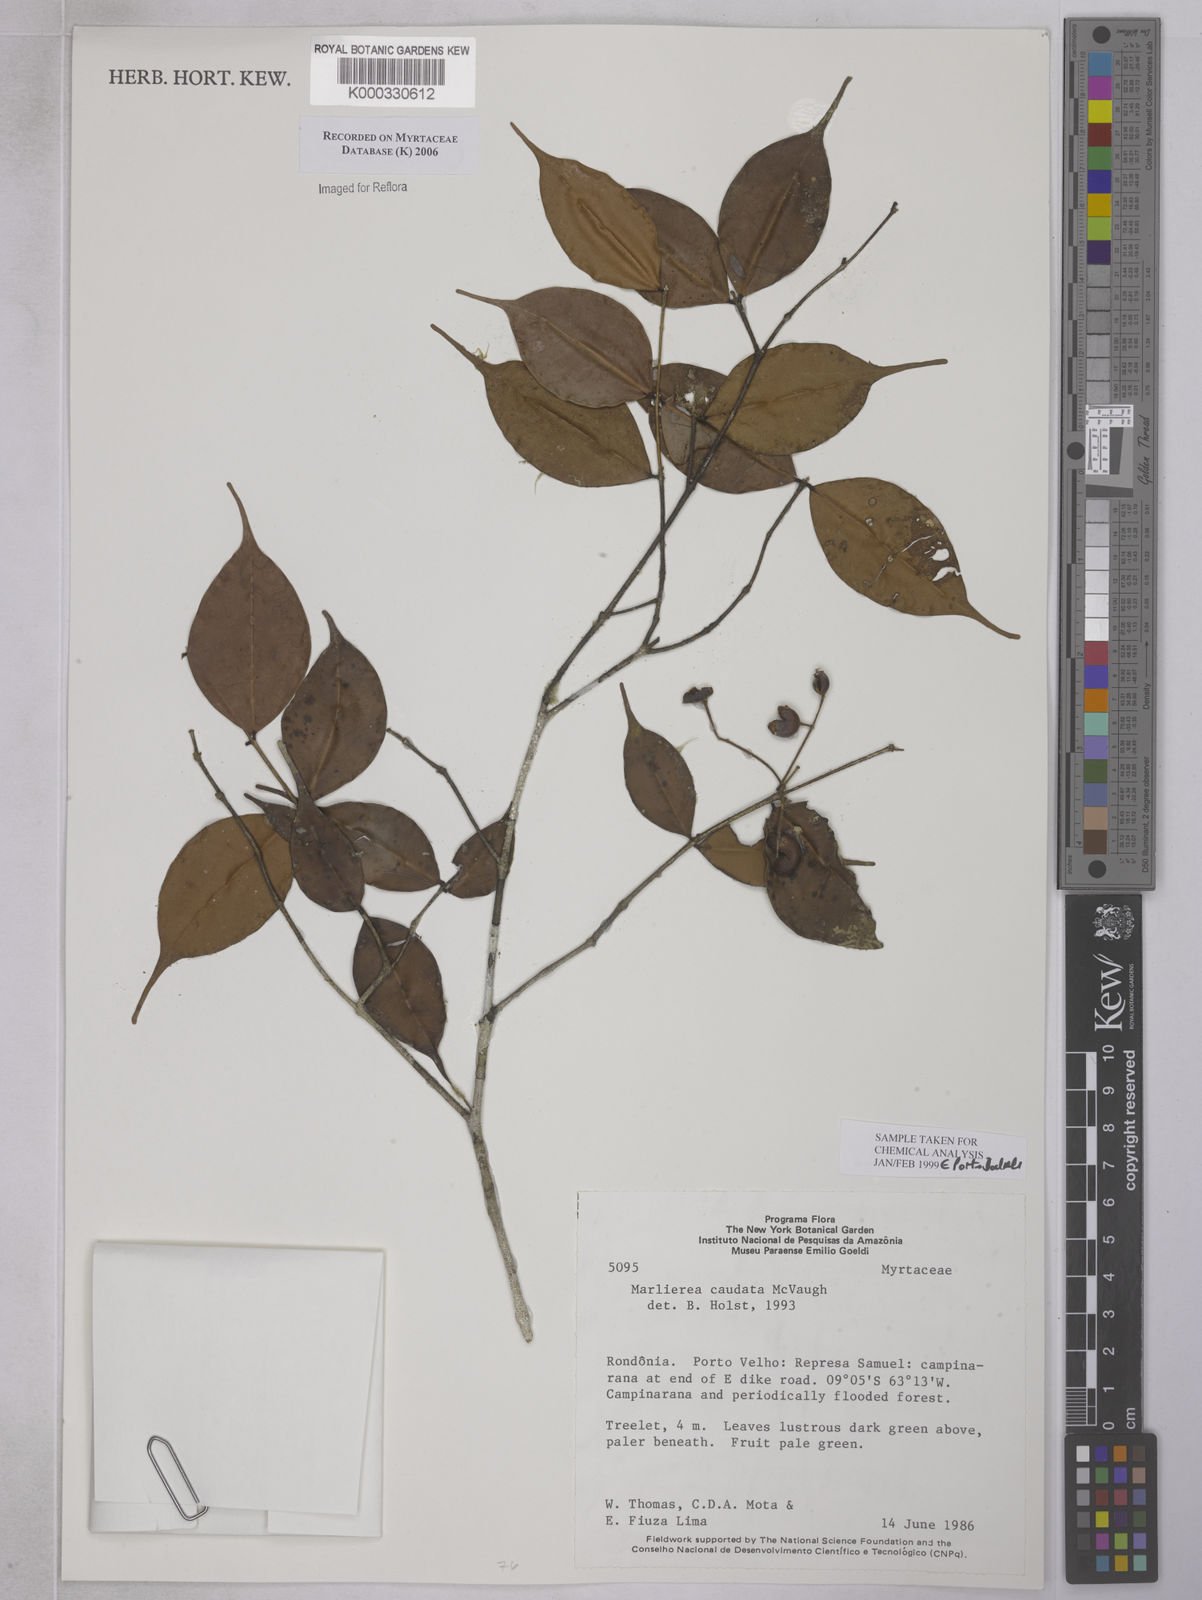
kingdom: Plantae
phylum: Tracheophyta
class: Magnoliopsida
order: Myrtales
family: Myrtaceae
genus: Myrcia
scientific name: Myrcia caudata
